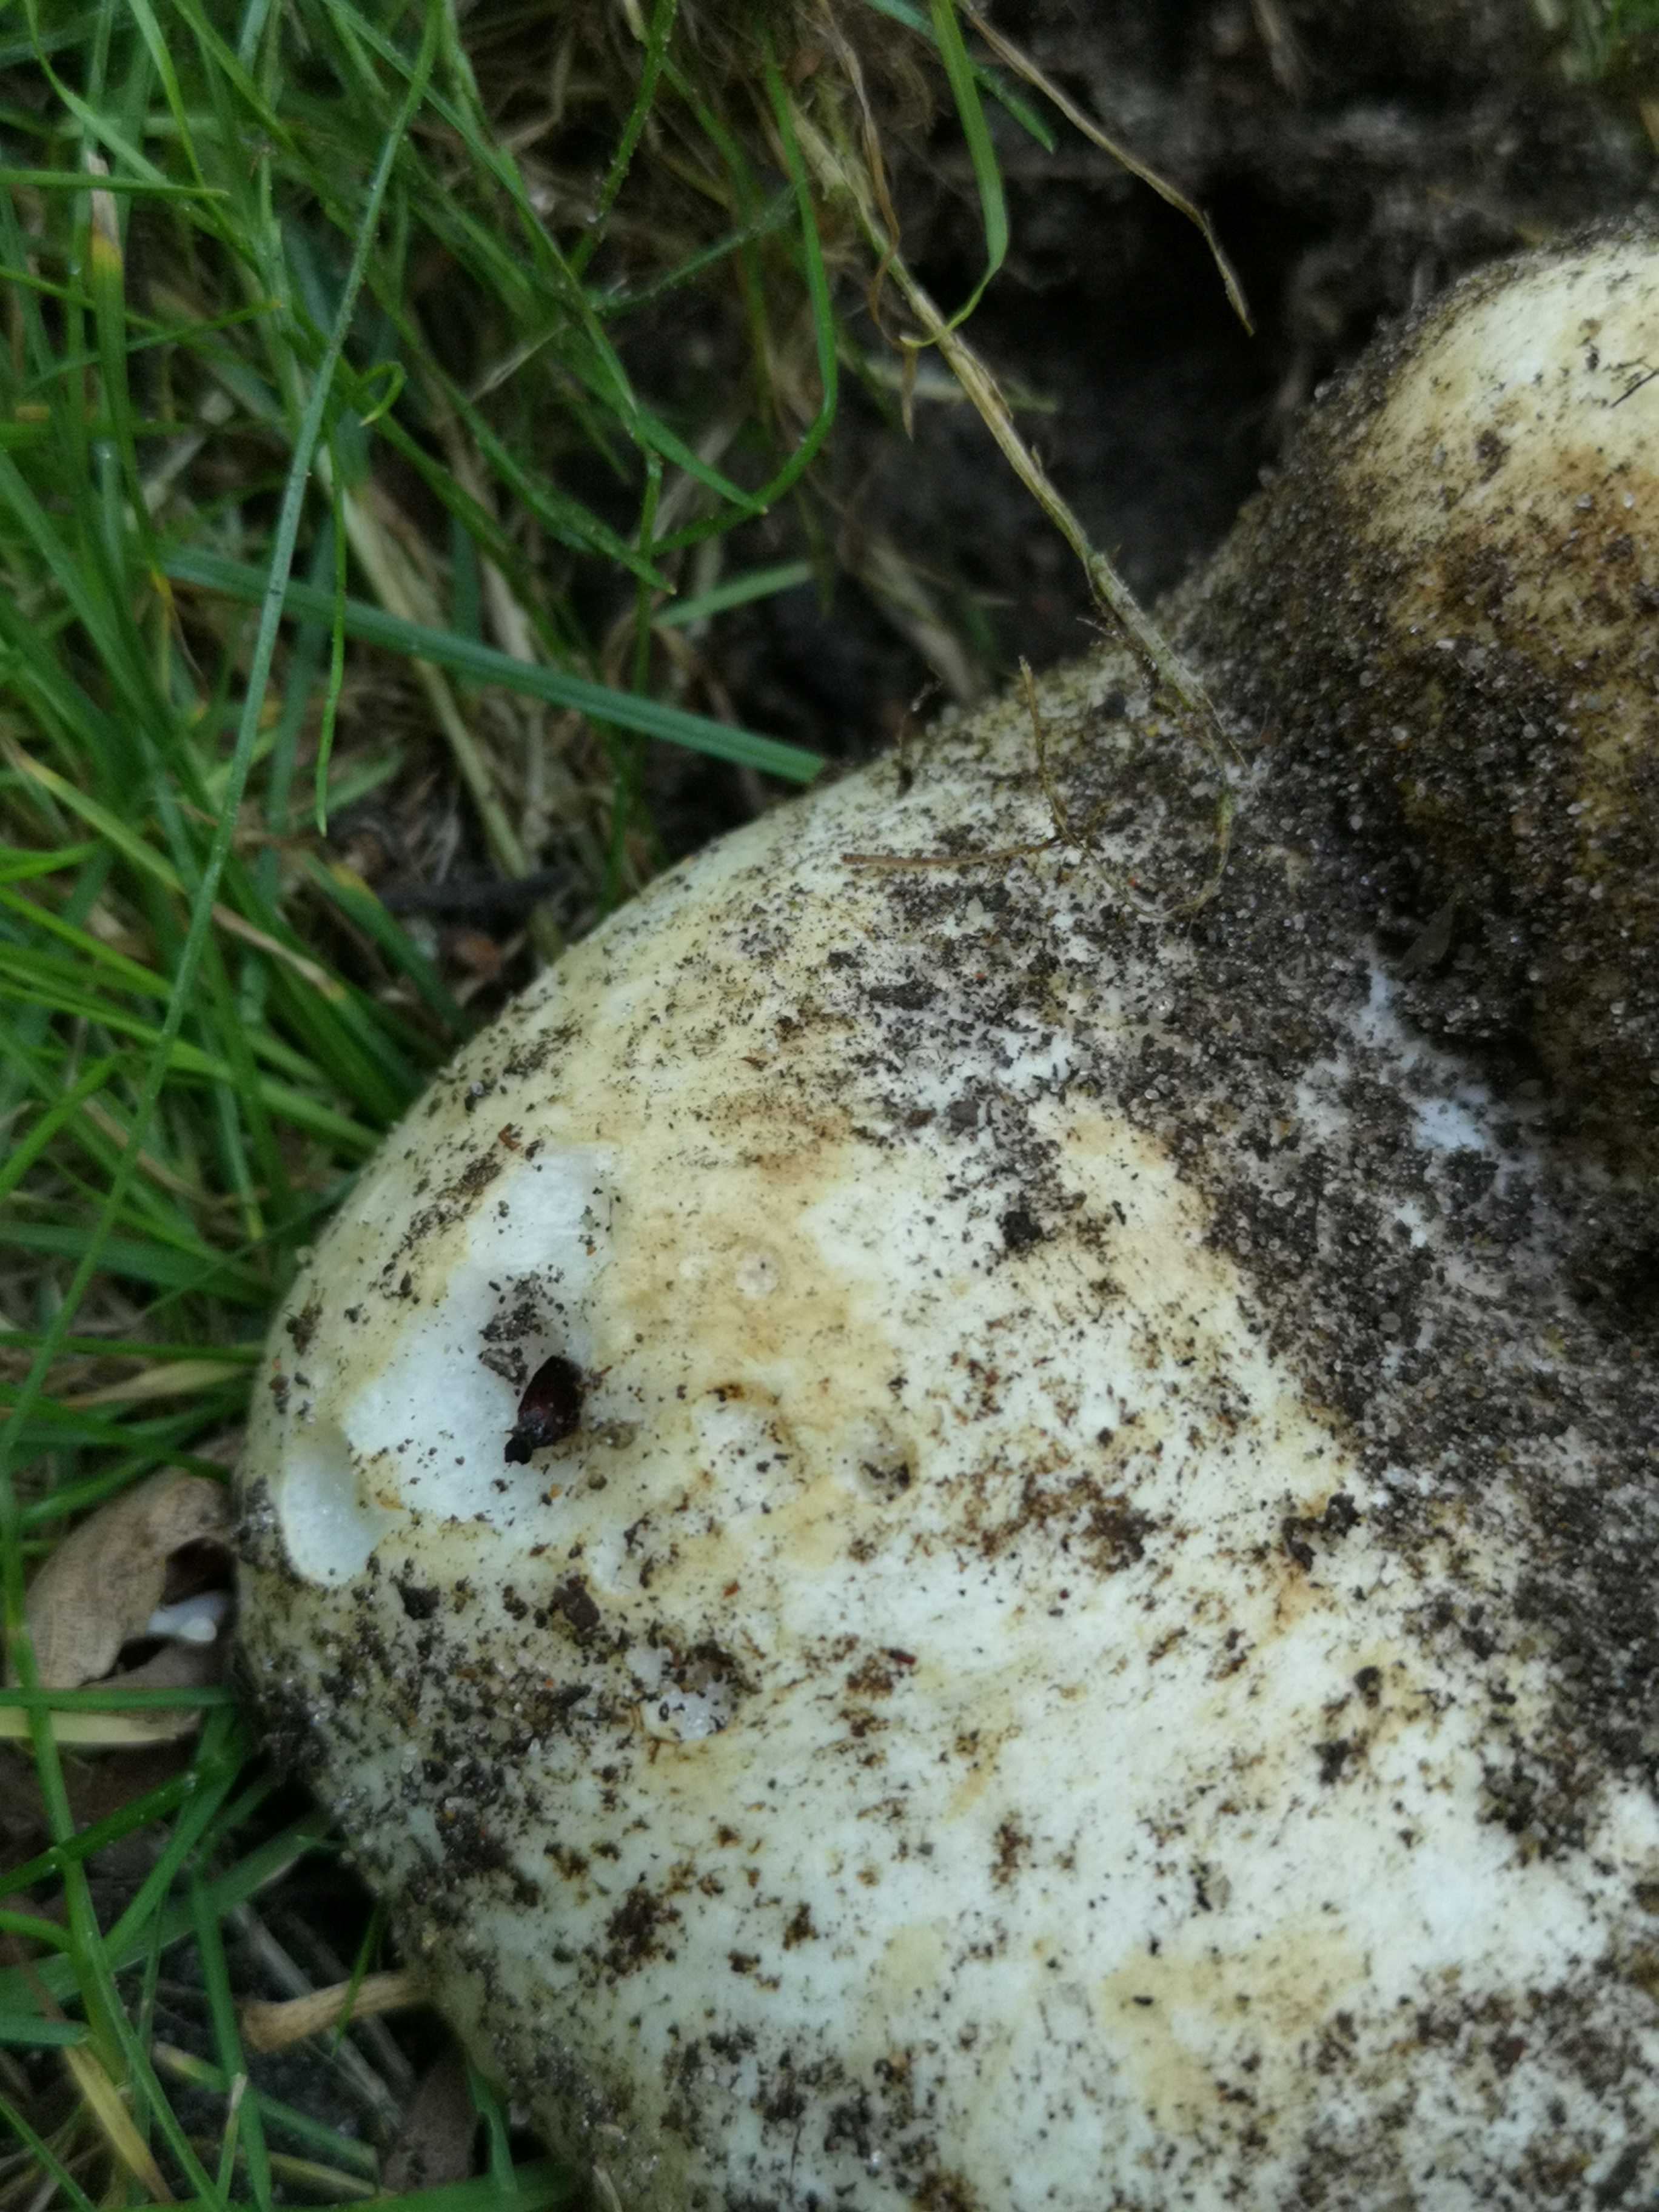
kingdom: Fungi
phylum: Basidiomycota
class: Agaricomycetes
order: Russulales
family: Russulaceae
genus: Russula
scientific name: Russula
